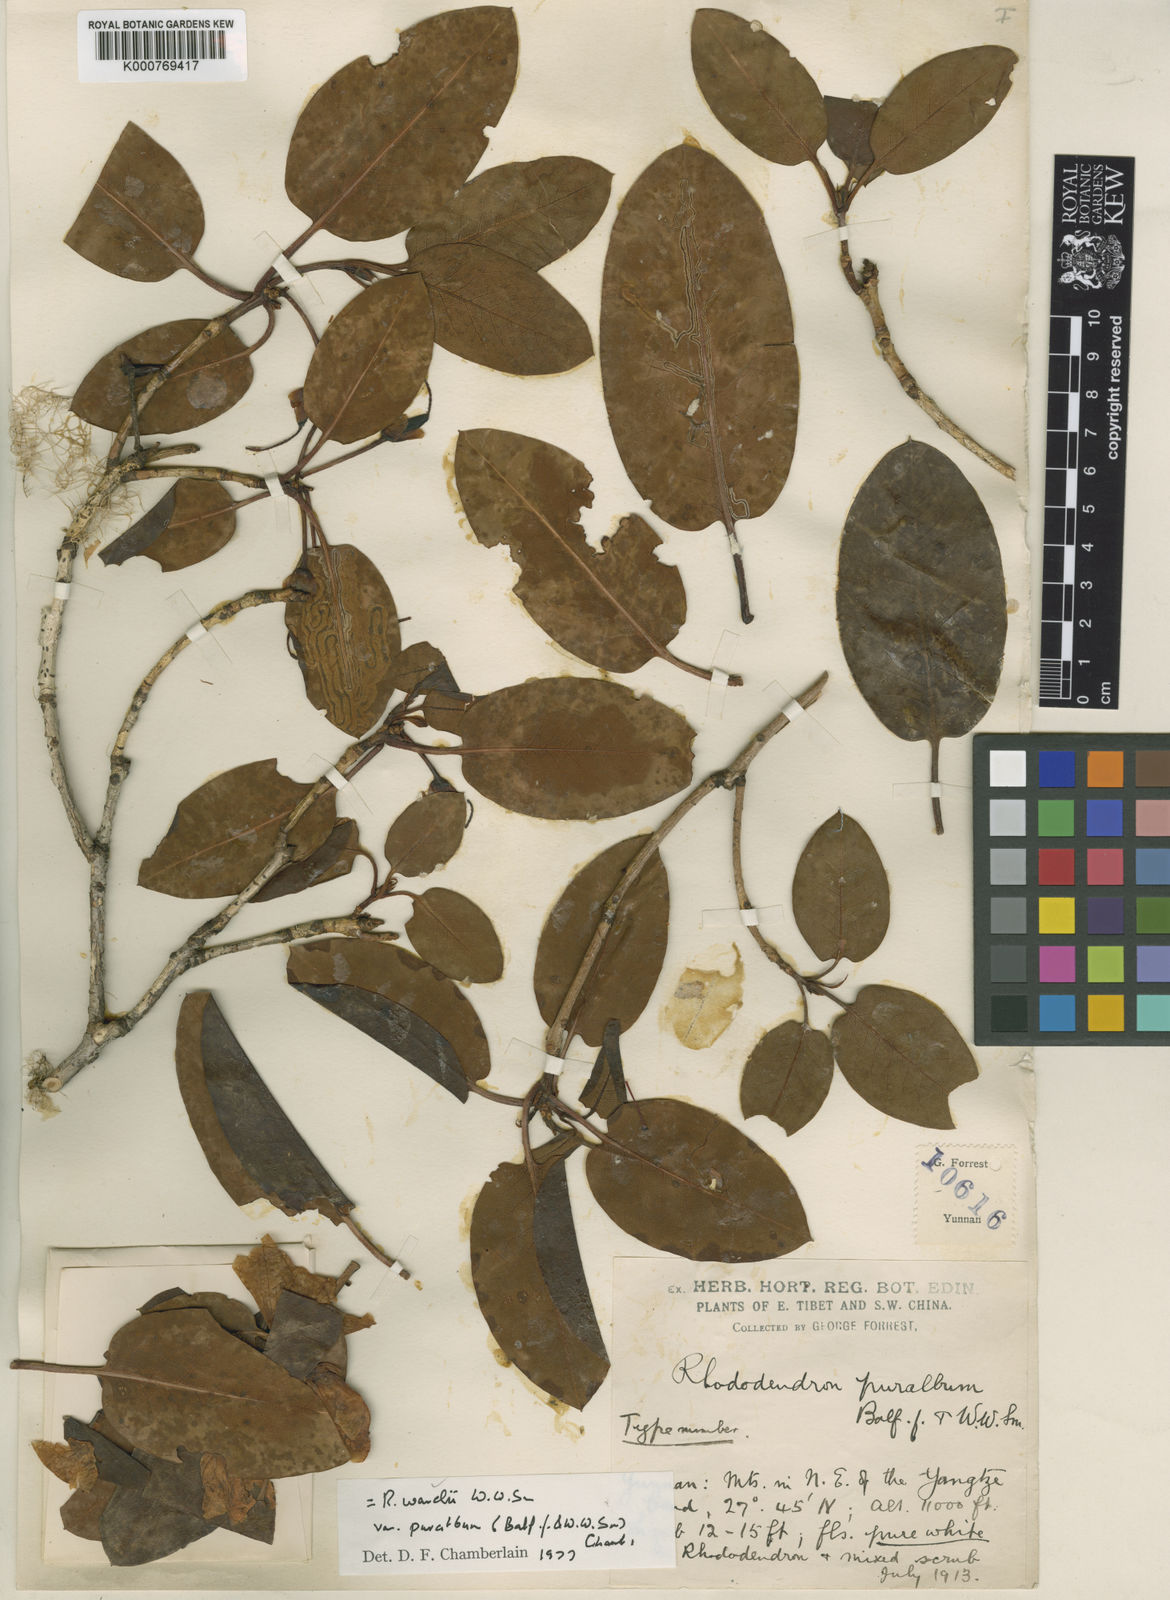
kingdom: Plantae
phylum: Tracheophyta
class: Magnoliopsida
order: Ericales
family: Ericaceae
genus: Rhododendron
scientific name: Rhododendron wardii
